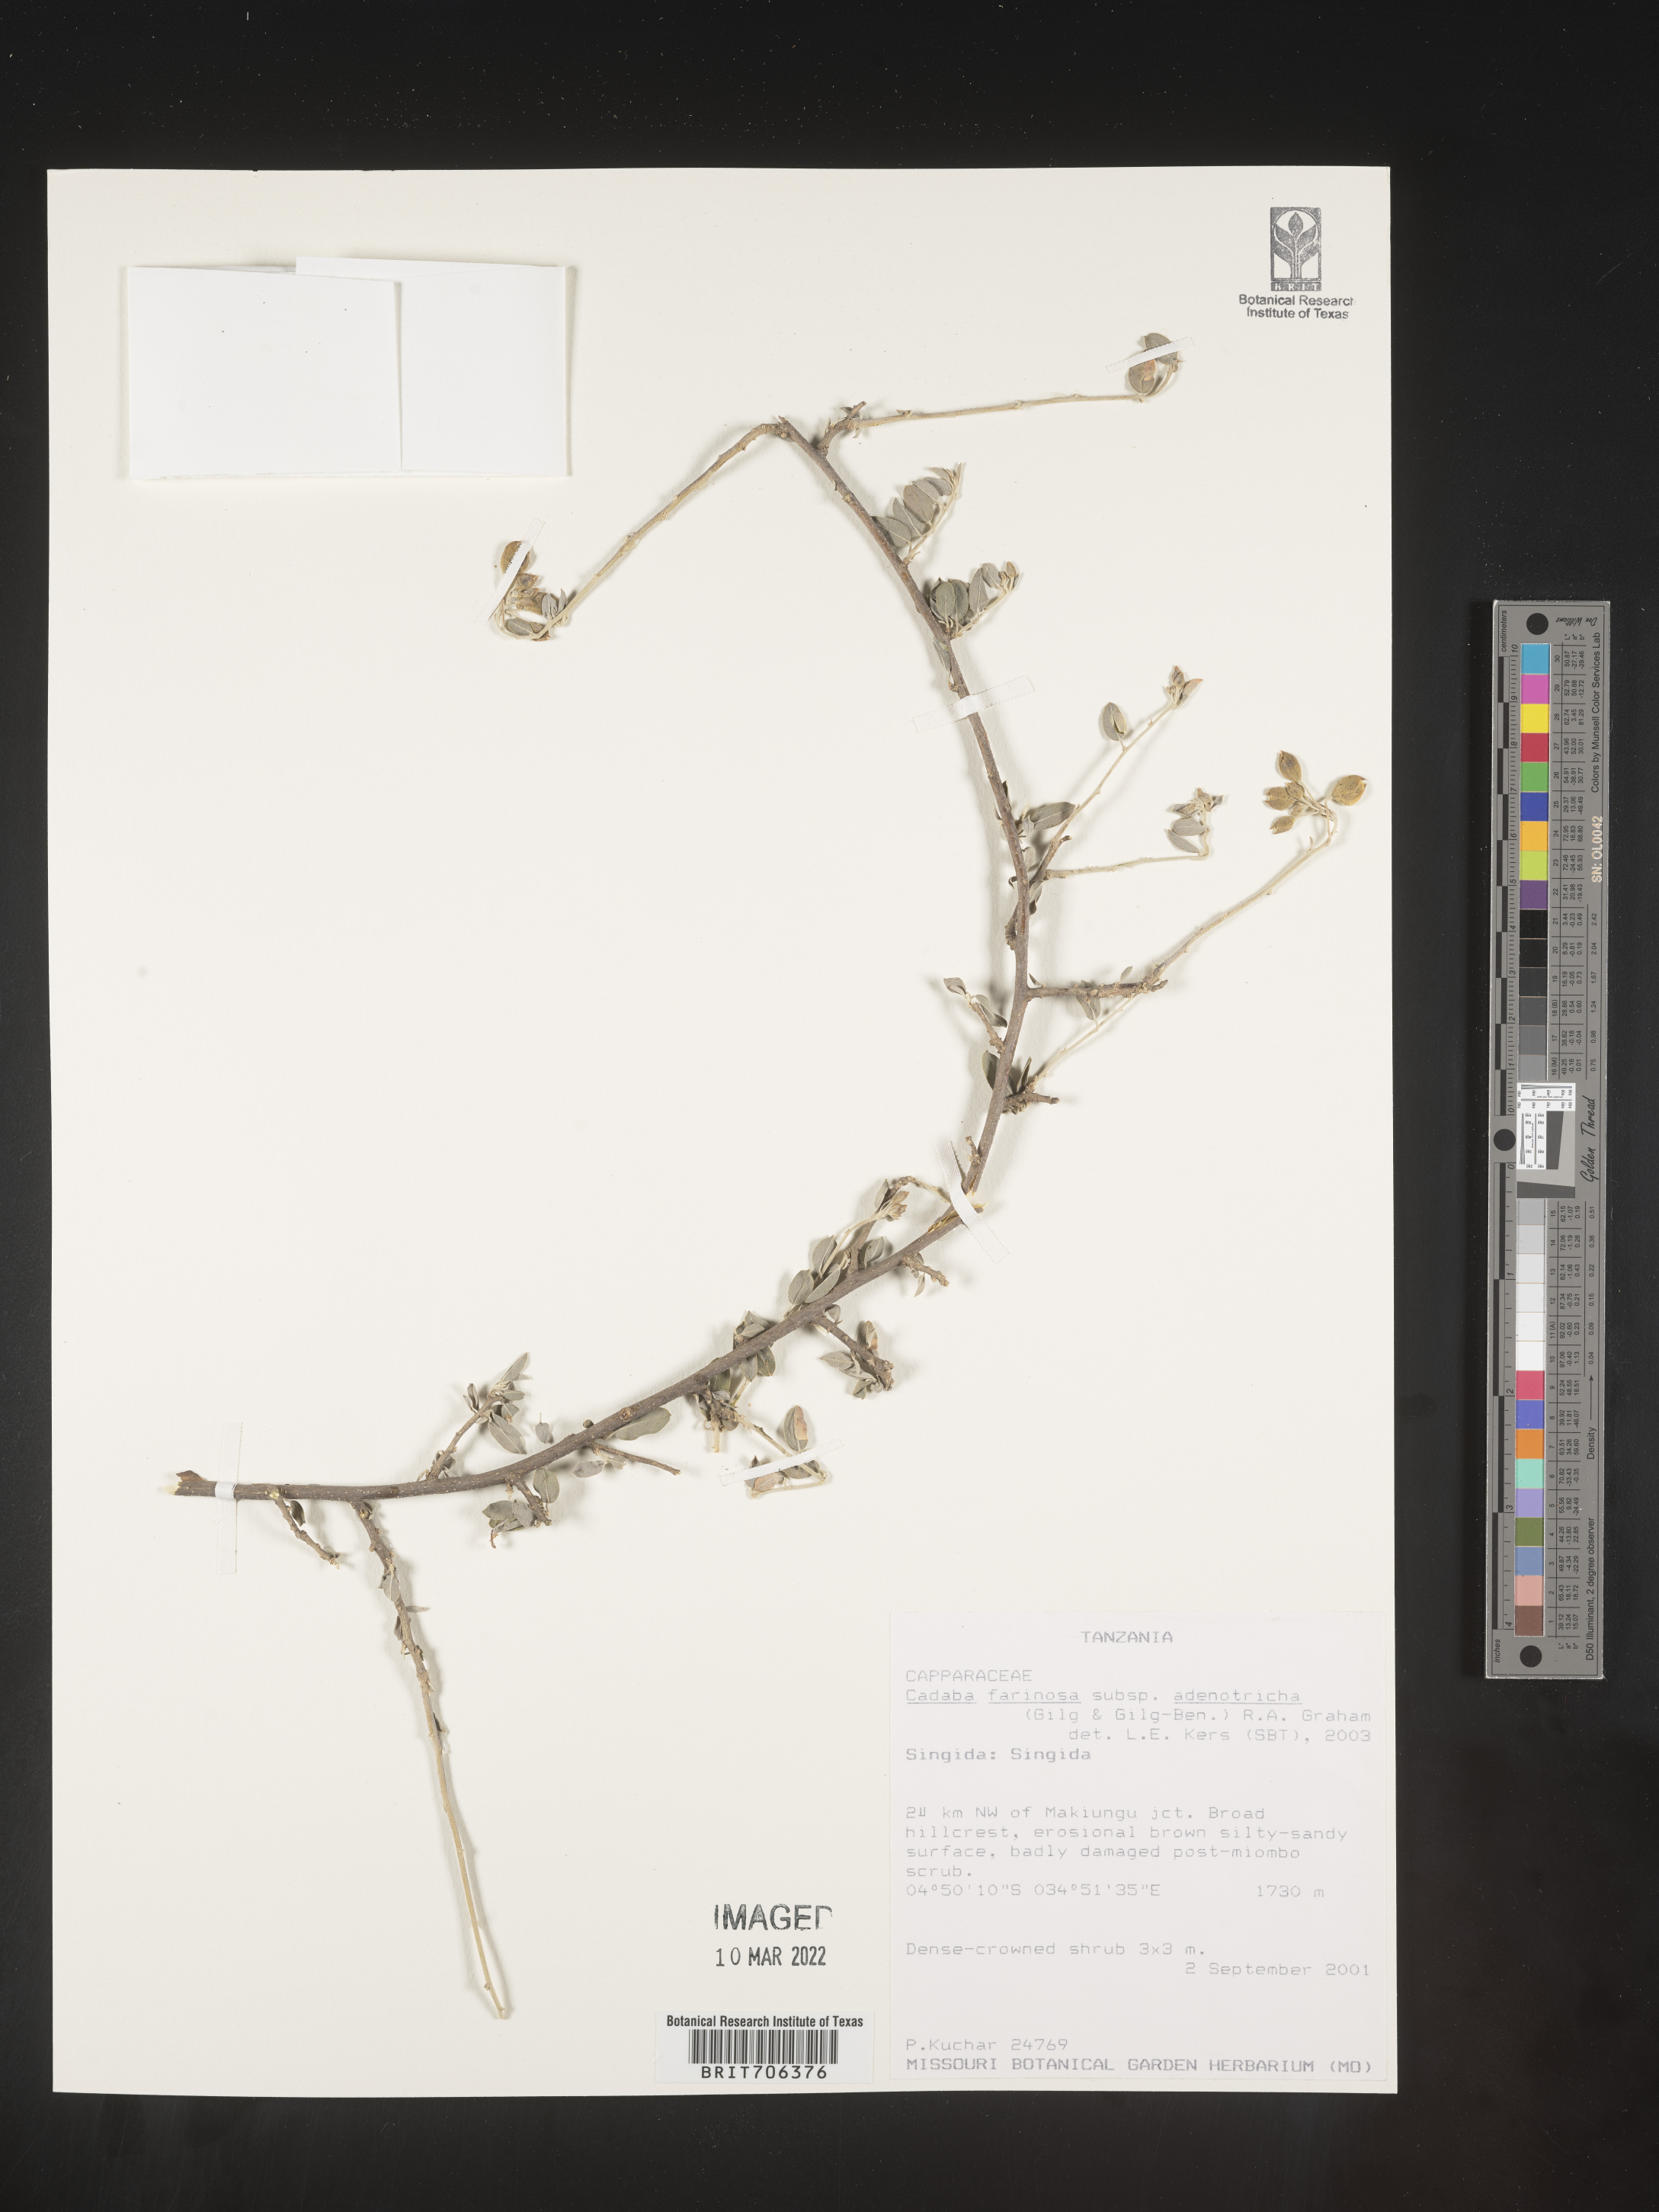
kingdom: Plantae
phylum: Tracheophyta
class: Magnoliopsida
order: Brassicales
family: Capparaceae
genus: Cadaba
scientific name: Cadaba
